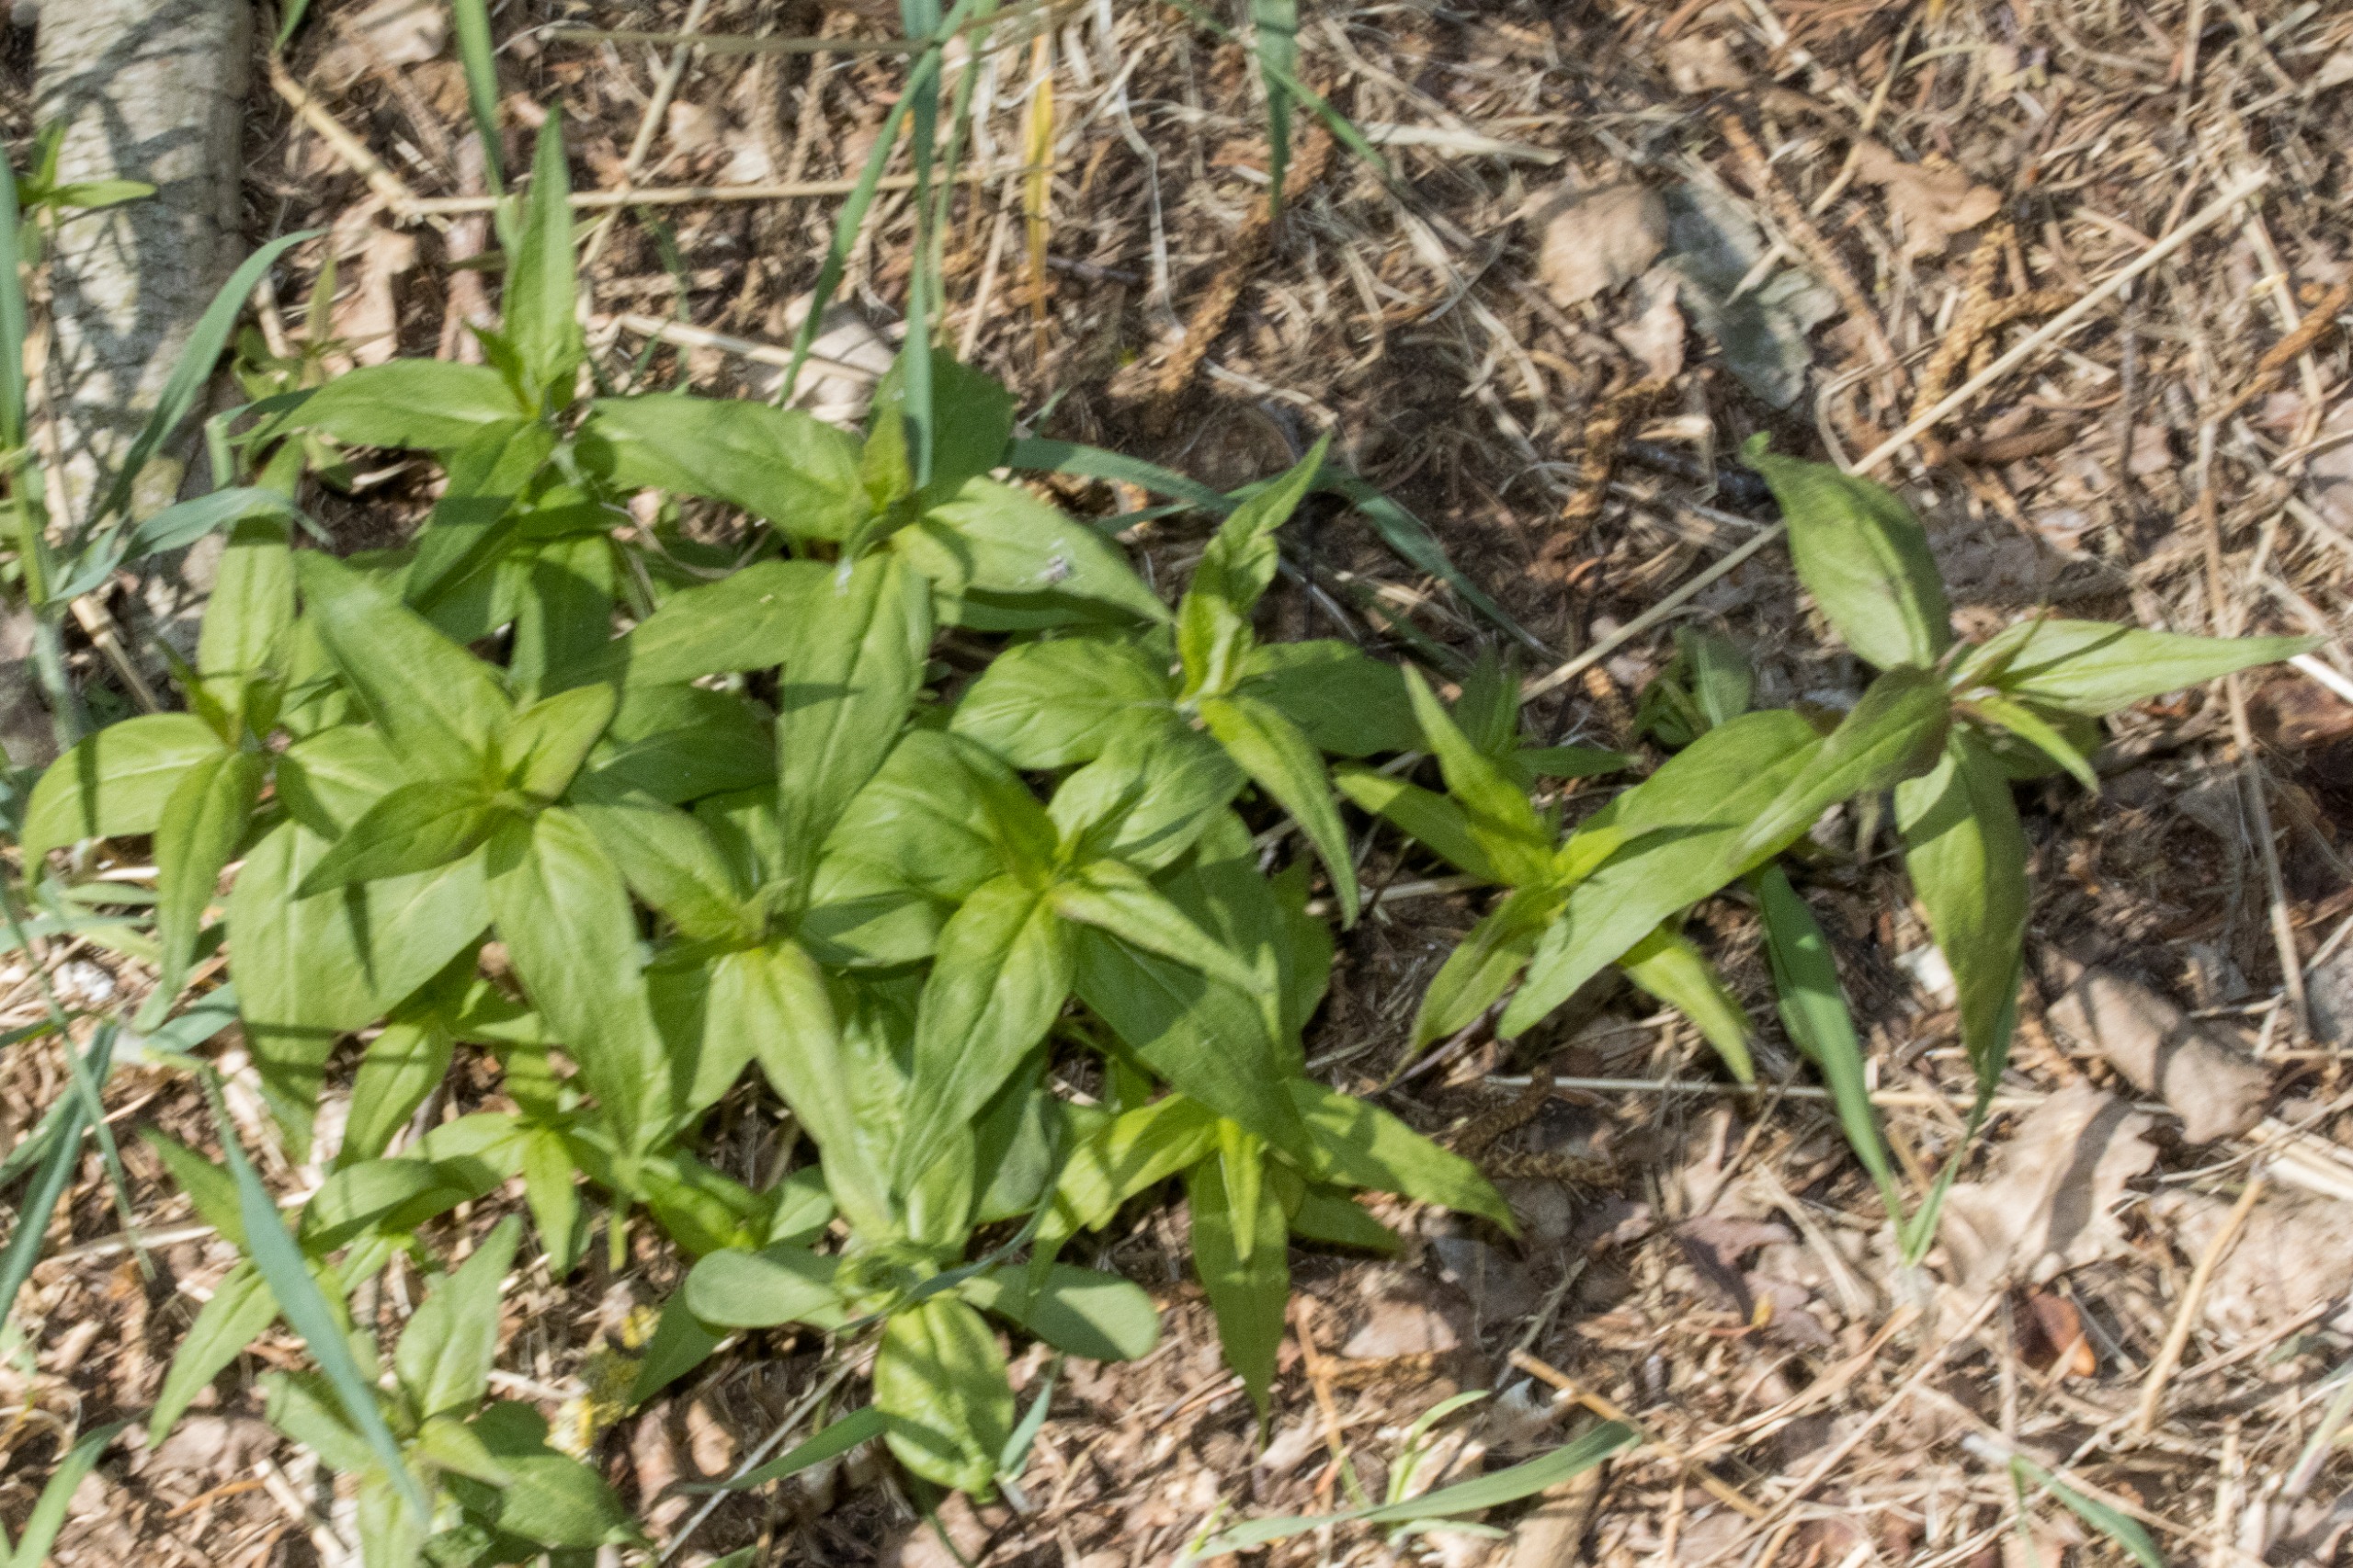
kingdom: Plantae
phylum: Tracheophyta
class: Magnoliopsida
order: Lamiales
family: Orobanchaceae
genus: Melampyrum
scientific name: Melampyrum nemorosum
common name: Blåtoppet kohvede
